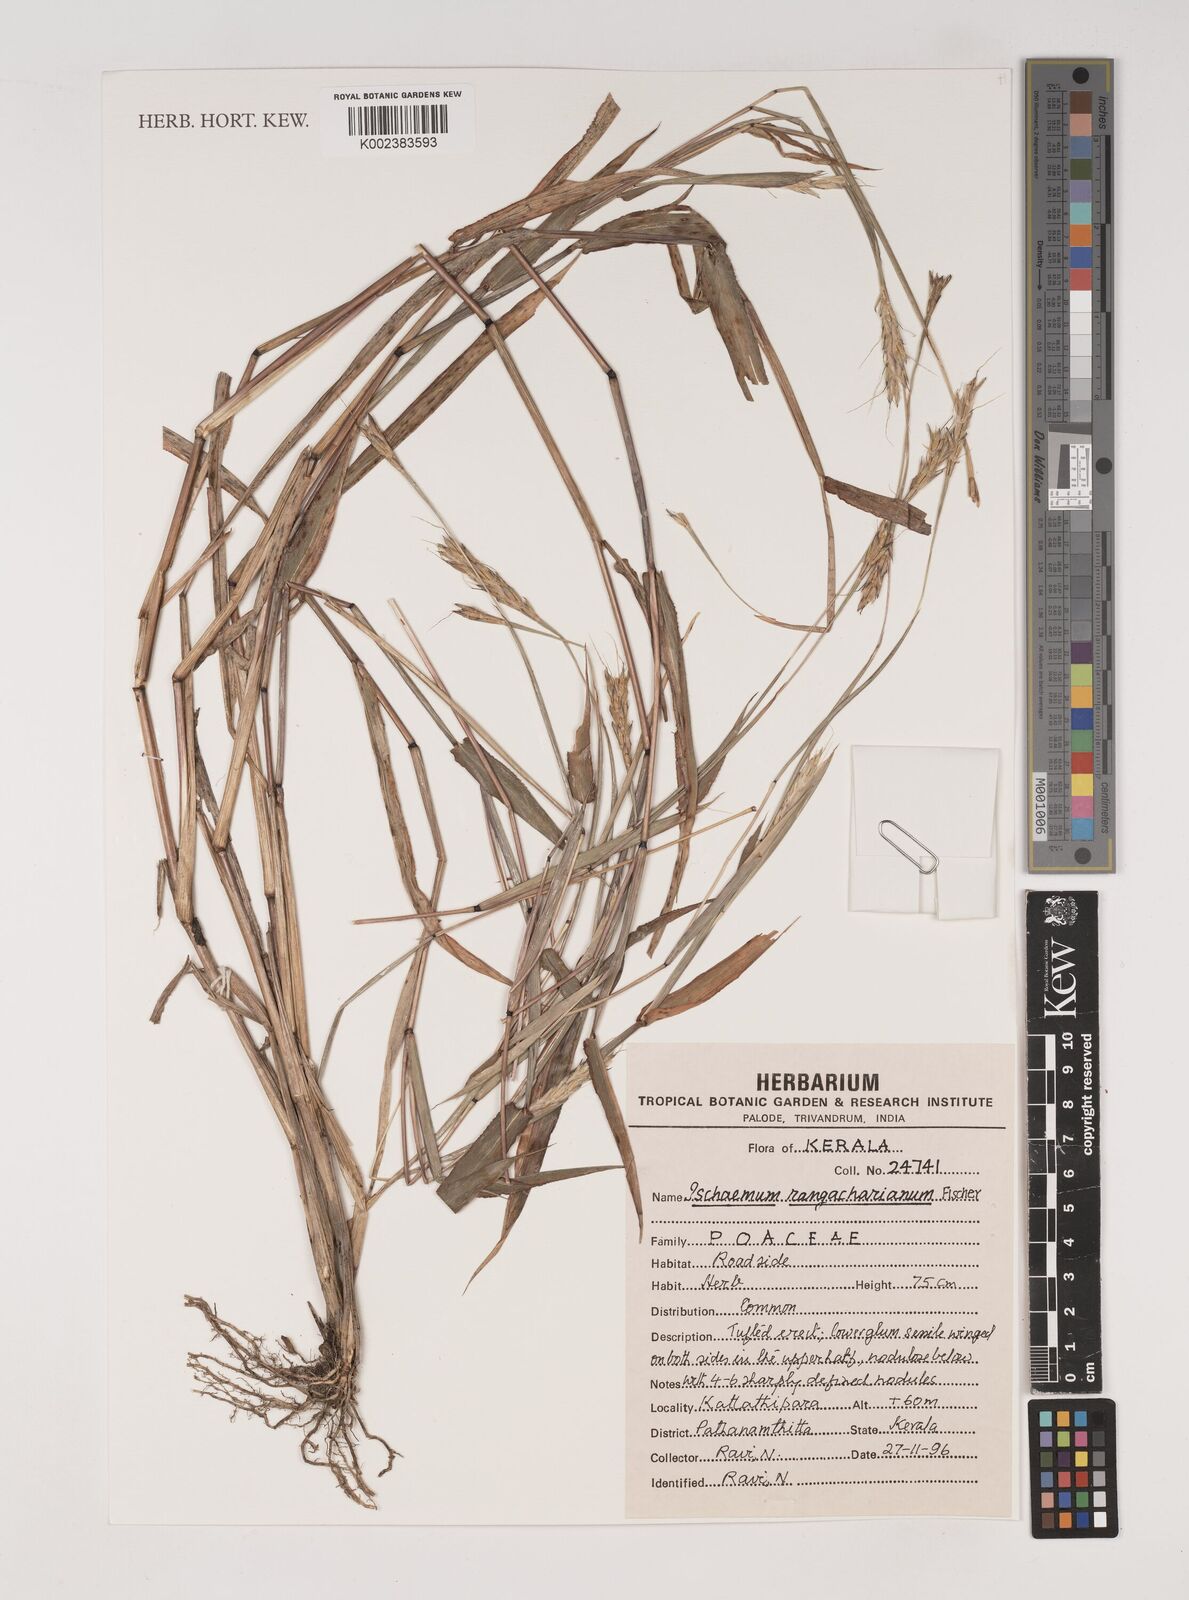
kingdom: Plantae
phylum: Tracheophyta
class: Liliopsida
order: Poales
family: Poaceae
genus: Ischaemum
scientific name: Ischaemum rangacharianum
